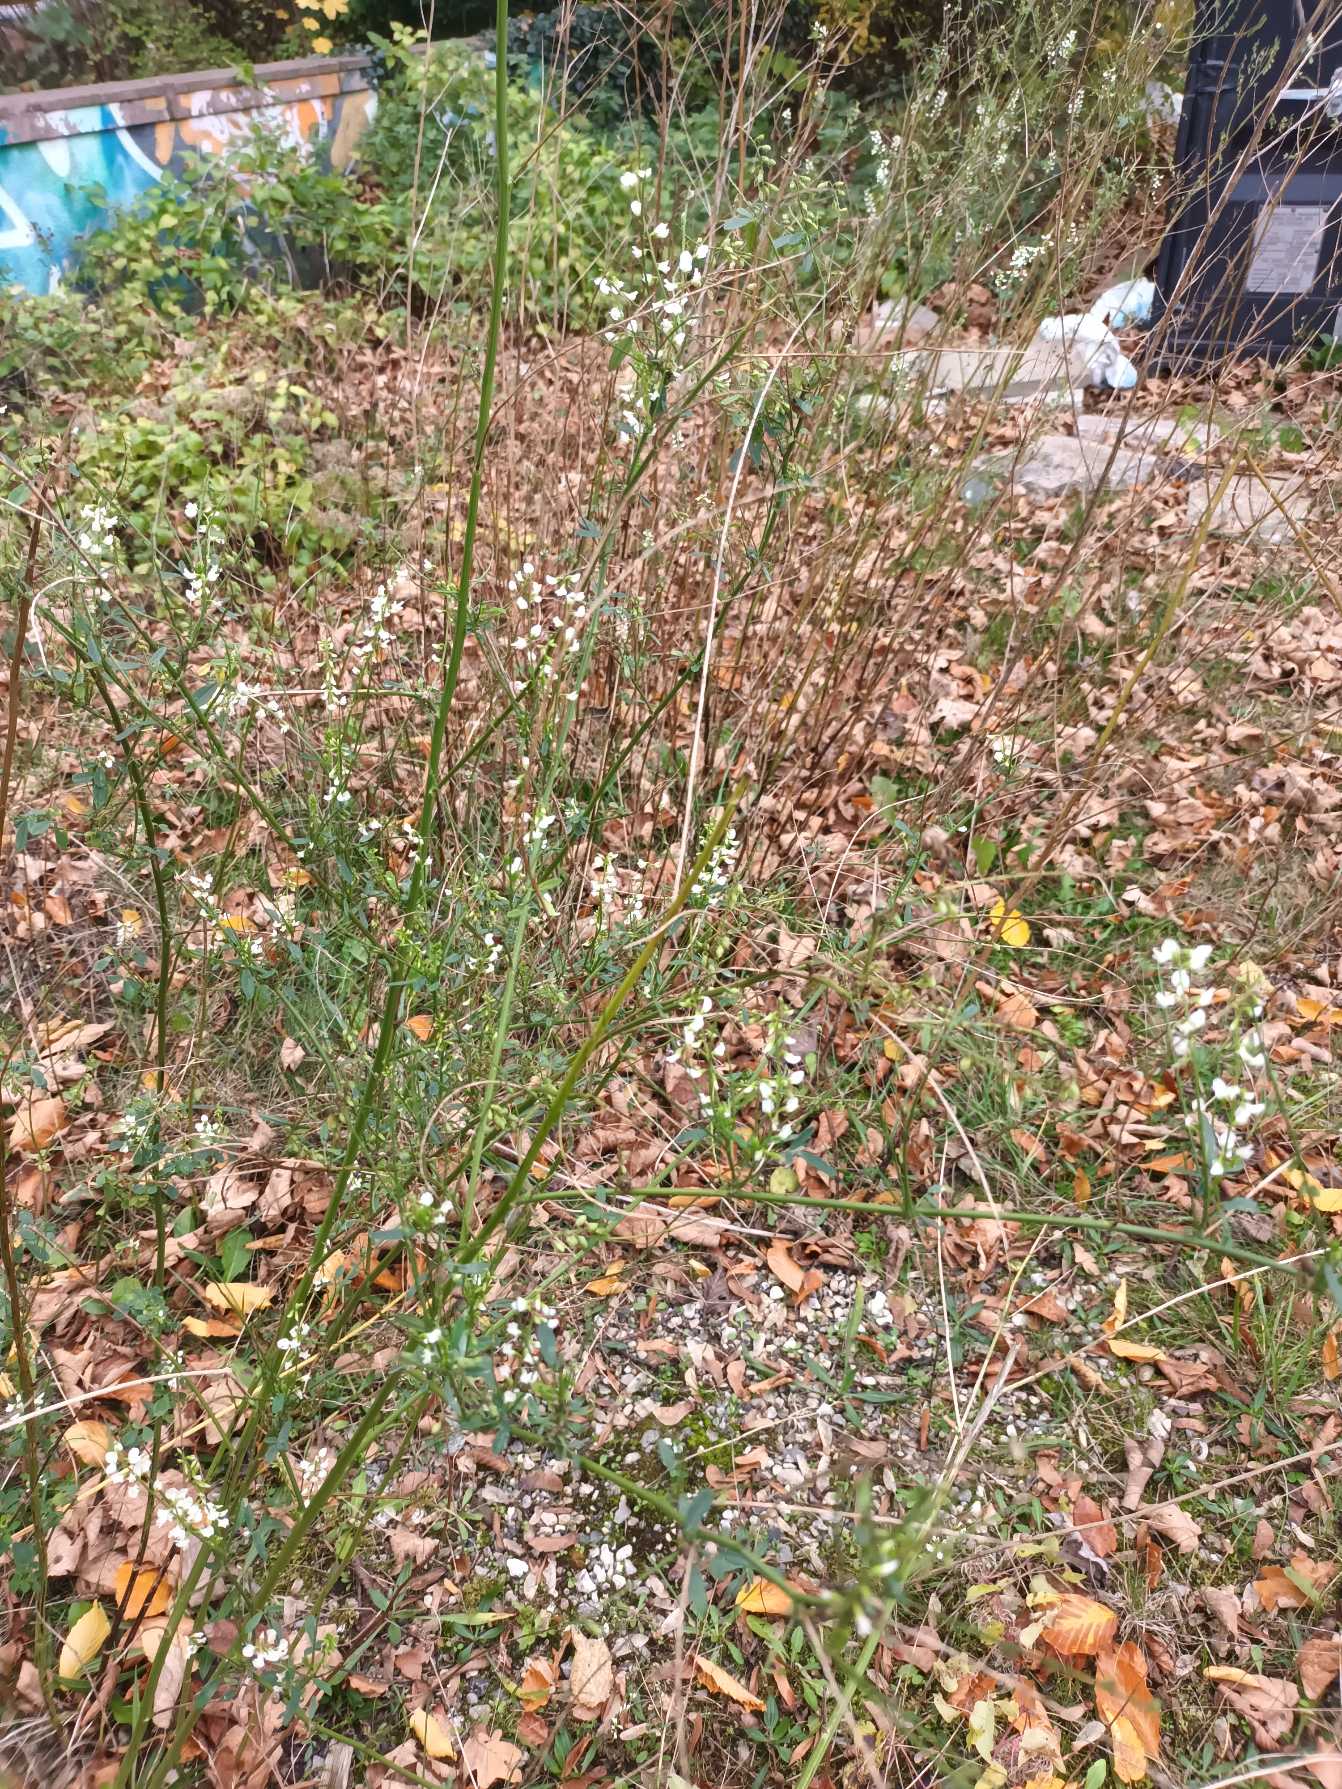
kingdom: Plantae
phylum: Tracheophyta
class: Magnoliopsida
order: Fabales
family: Fabaceae
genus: Melilotus
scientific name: Melilotus albus
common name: Hvid stenkløver
